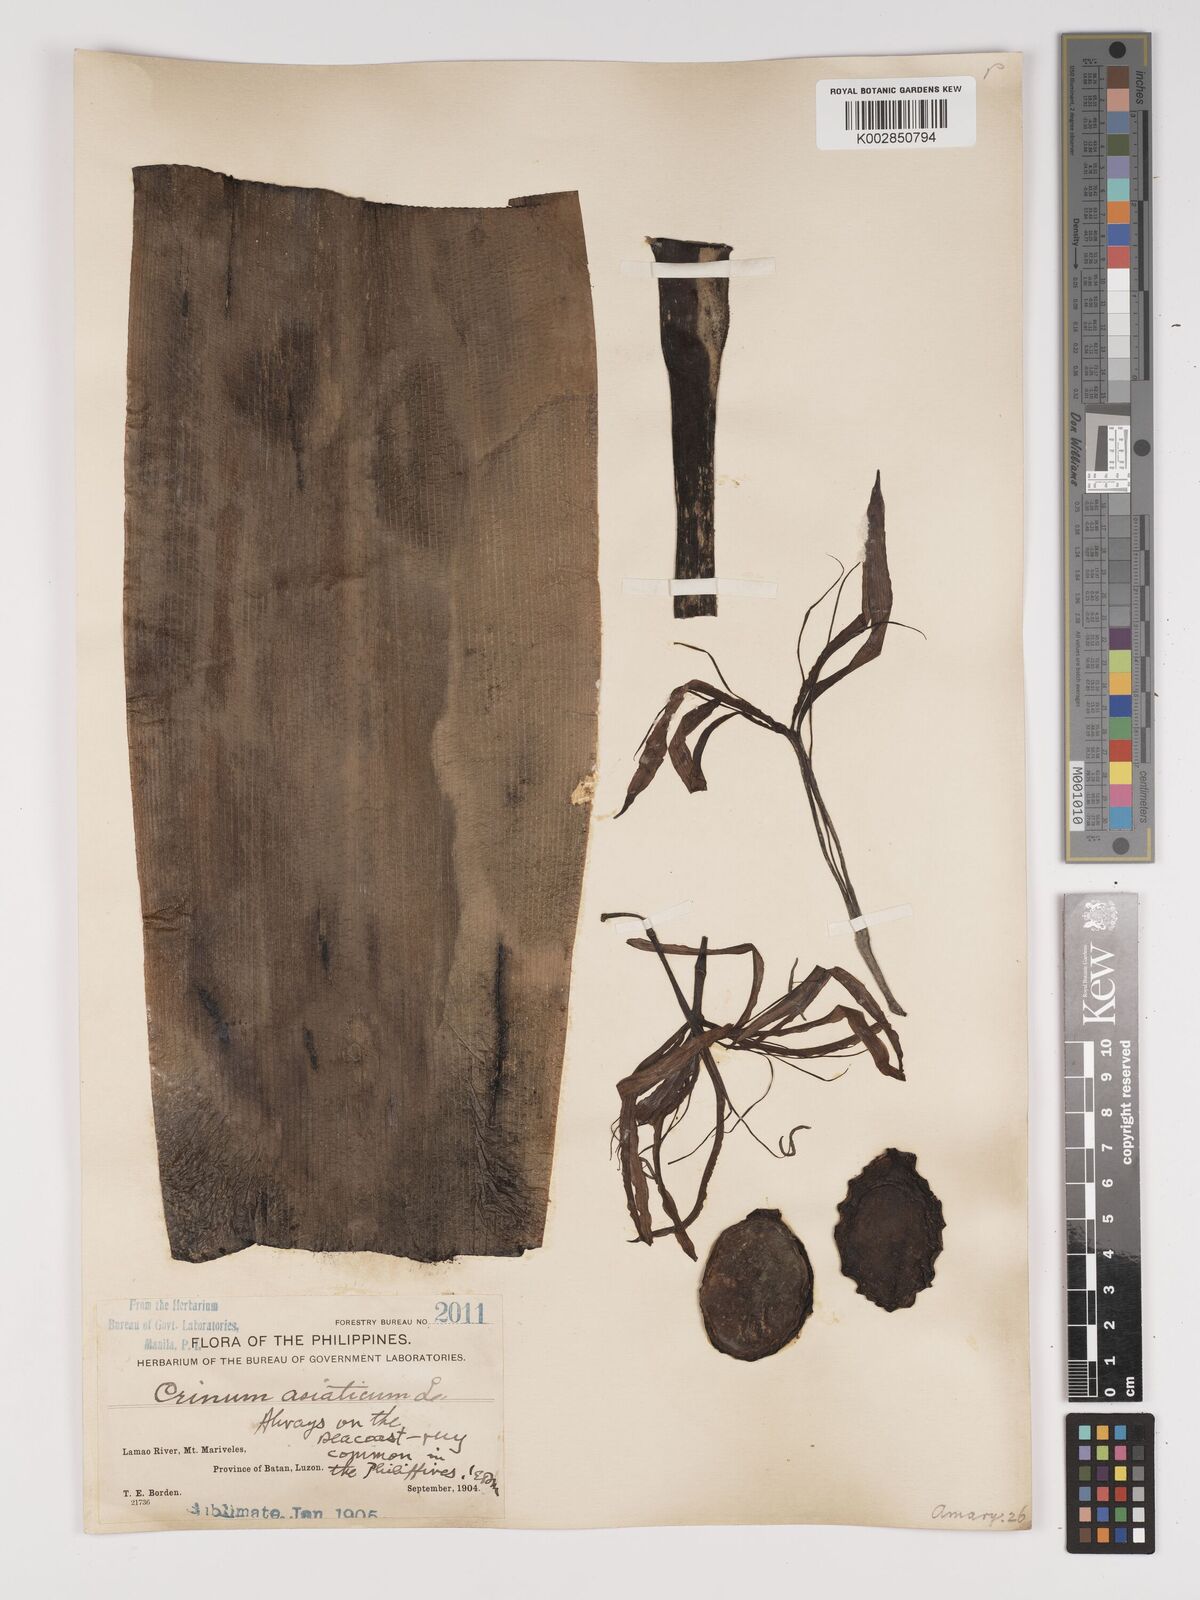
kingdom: Plantae
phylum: Tracheophyta
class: Liliopsida
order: Asparagales
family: Amaryllidaceae
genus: Crinum
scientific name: Crinum asiaticum
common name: Poisonbulb
